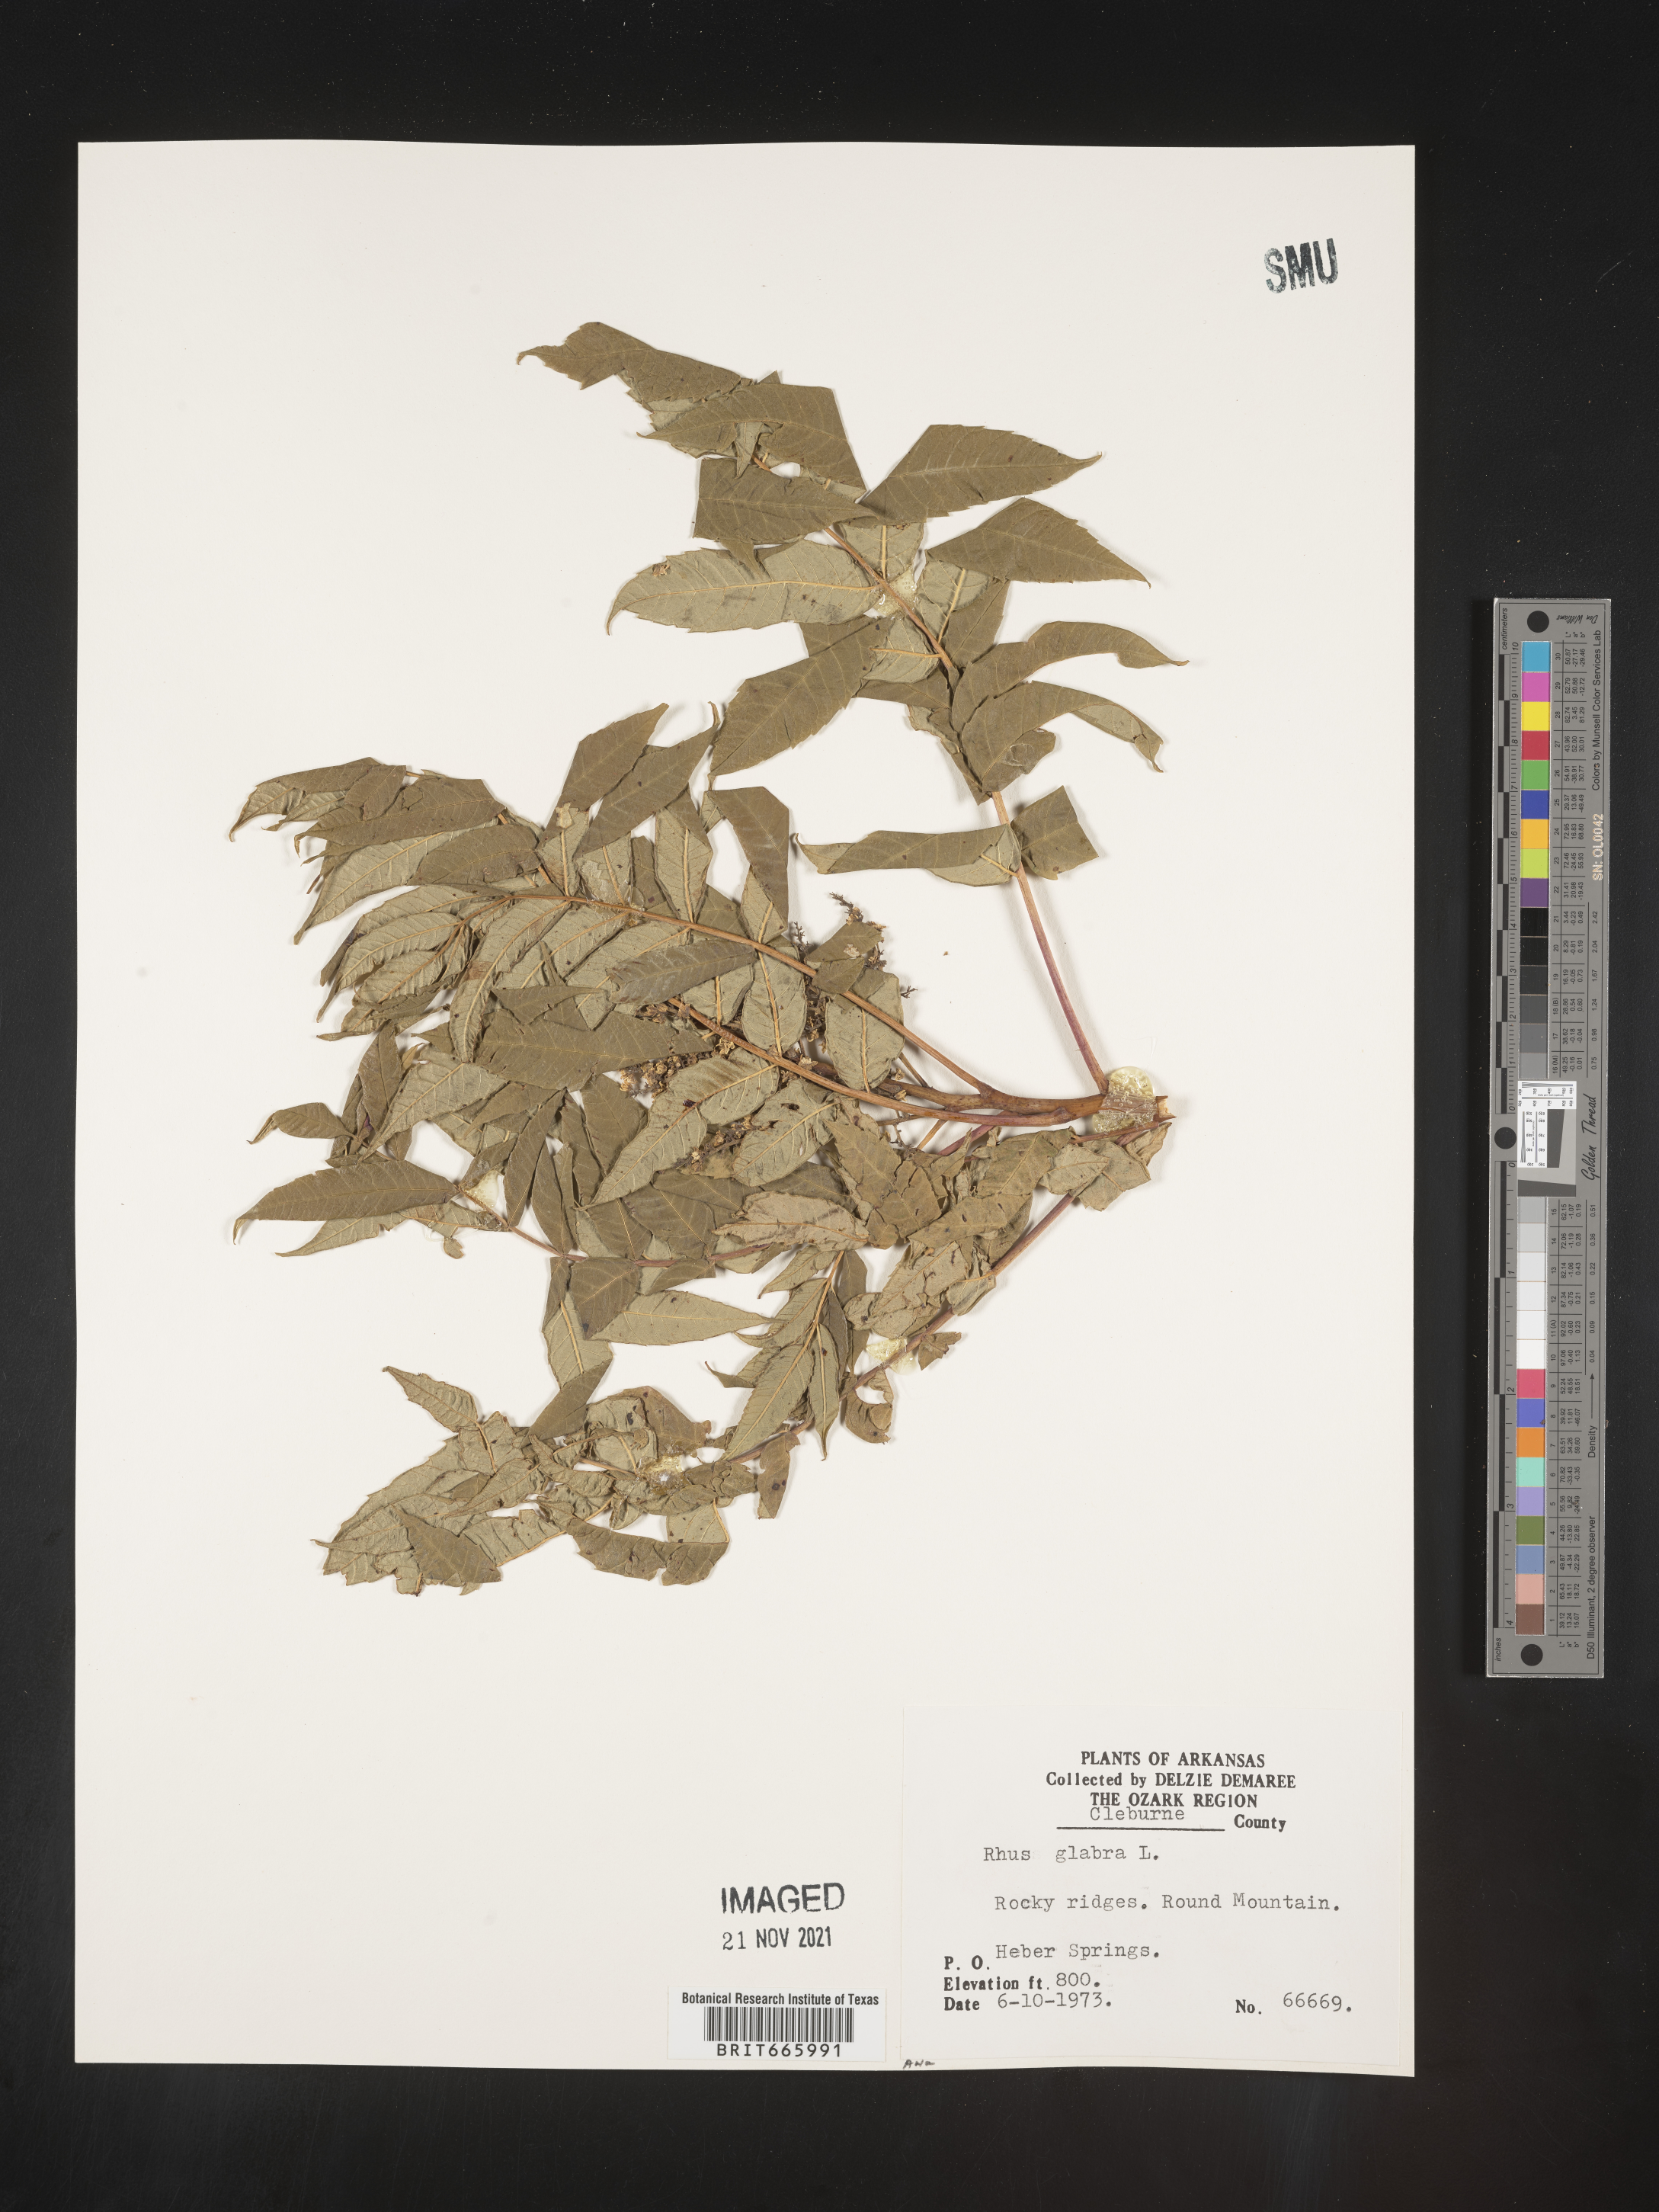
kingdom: Plantae
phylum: Tracheophyta
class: Magnoliopsida
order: Sapindales
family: Anacardiaceae
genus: Rhus
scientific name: Rhus glabra
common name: Scarlet sumac
